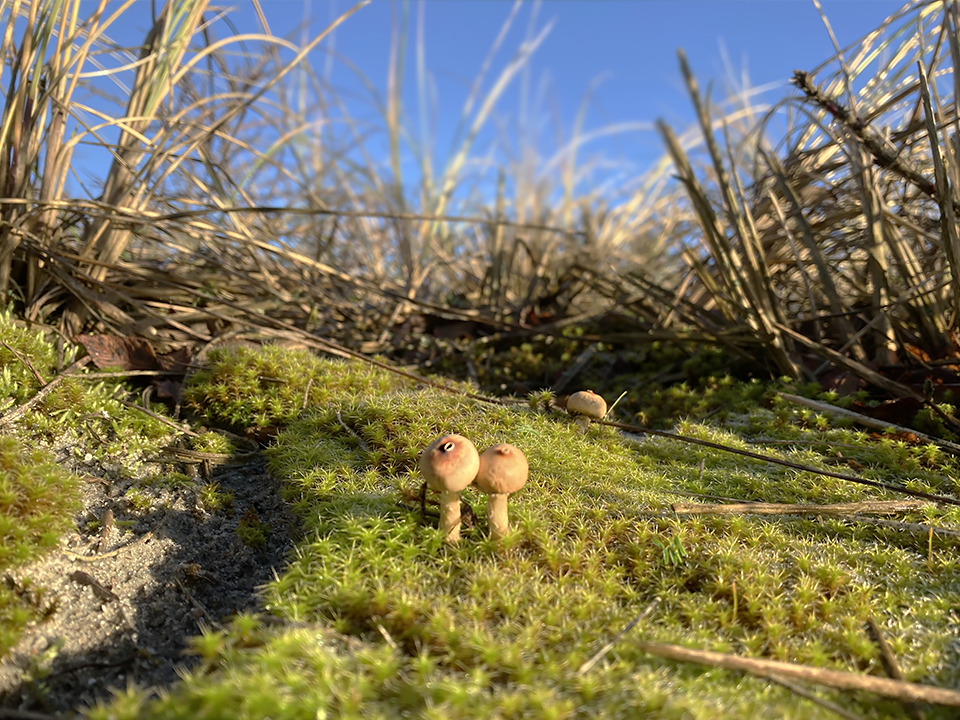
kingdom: Fungi
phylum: Basidiomycota
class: Agaricomycetes
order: Agaricales
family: Agaricaceae
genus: Tulostoma
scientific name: Tulostoma brumale
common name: vinter-stilkbovist
